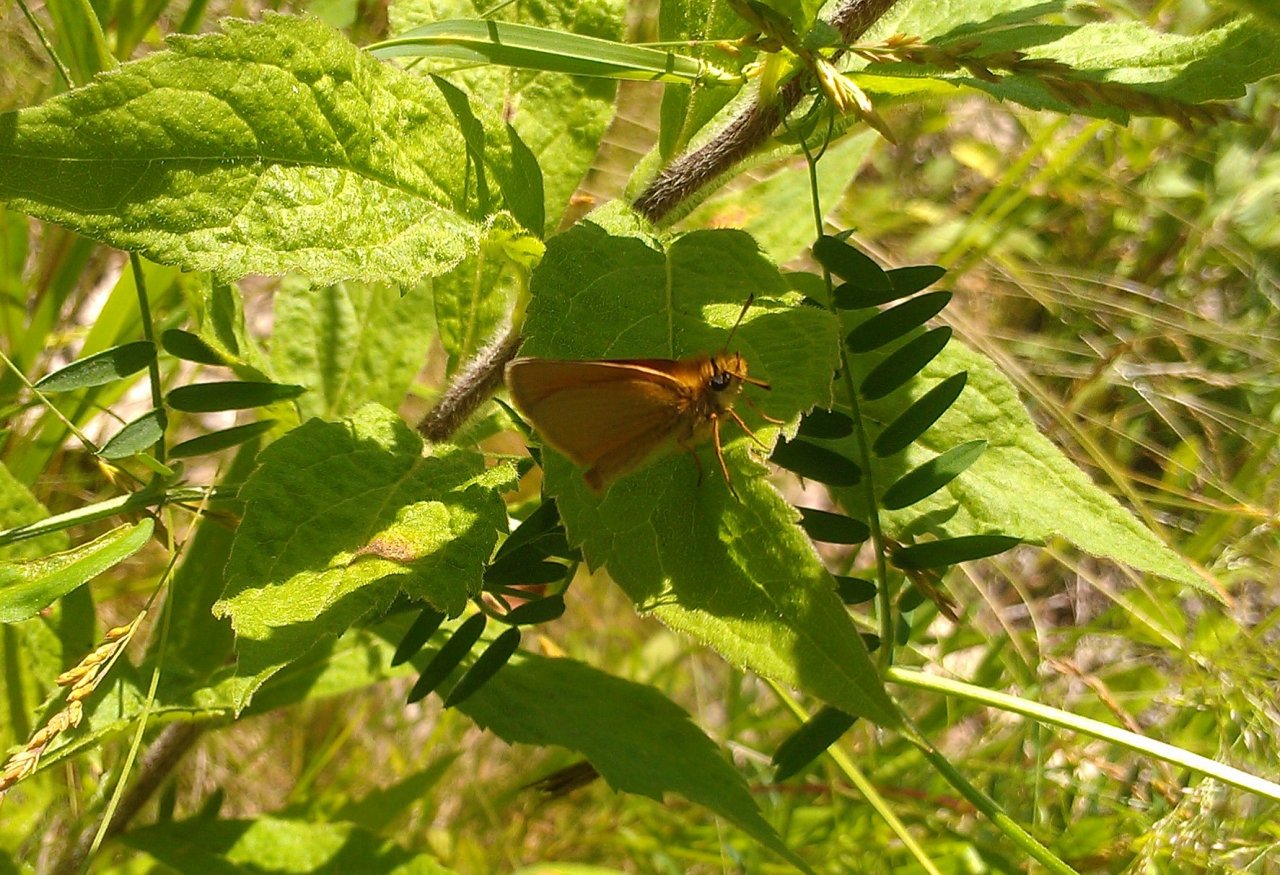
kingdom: Animalia
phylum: Arthropoda
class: Insecta
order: Lepidoptera
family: Hesperiidae
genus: Thymelicus
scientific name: Thymelicus lineola
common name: European Skipper
